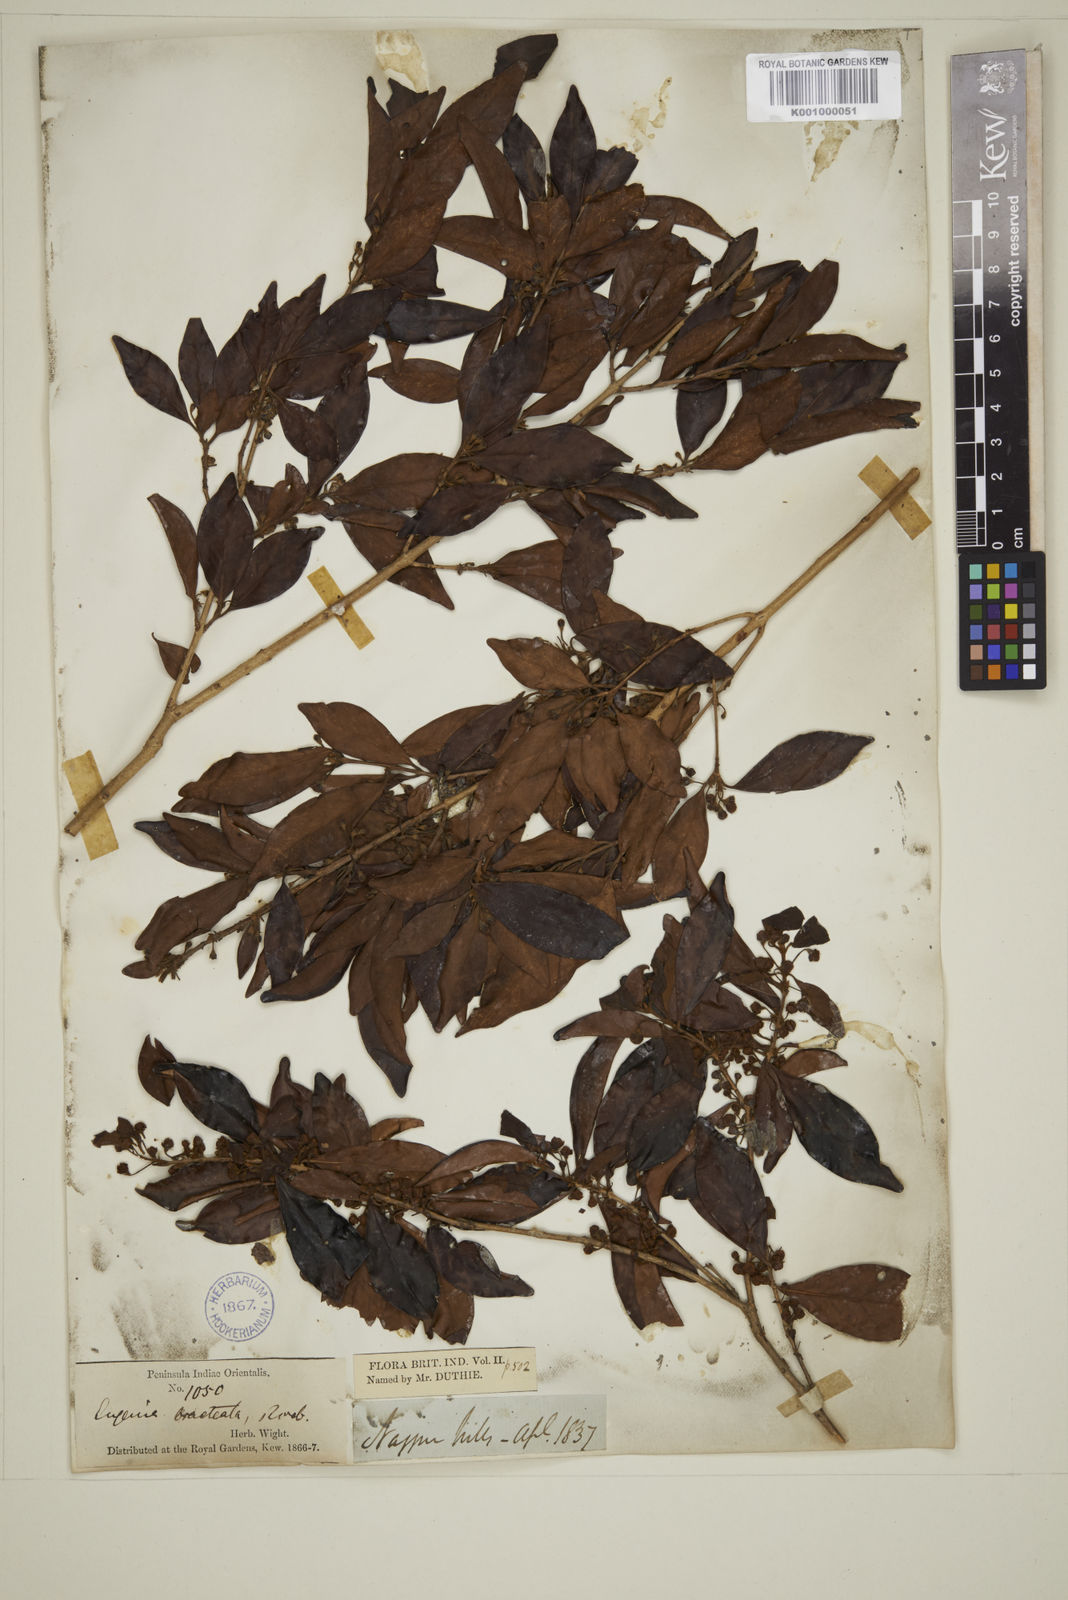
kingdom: Plantae
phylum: Tracheophyta
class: Magnoliopsida
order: Myrtales
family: Myrtaceae
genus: Myrcia
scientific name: Myrcia bracteata
